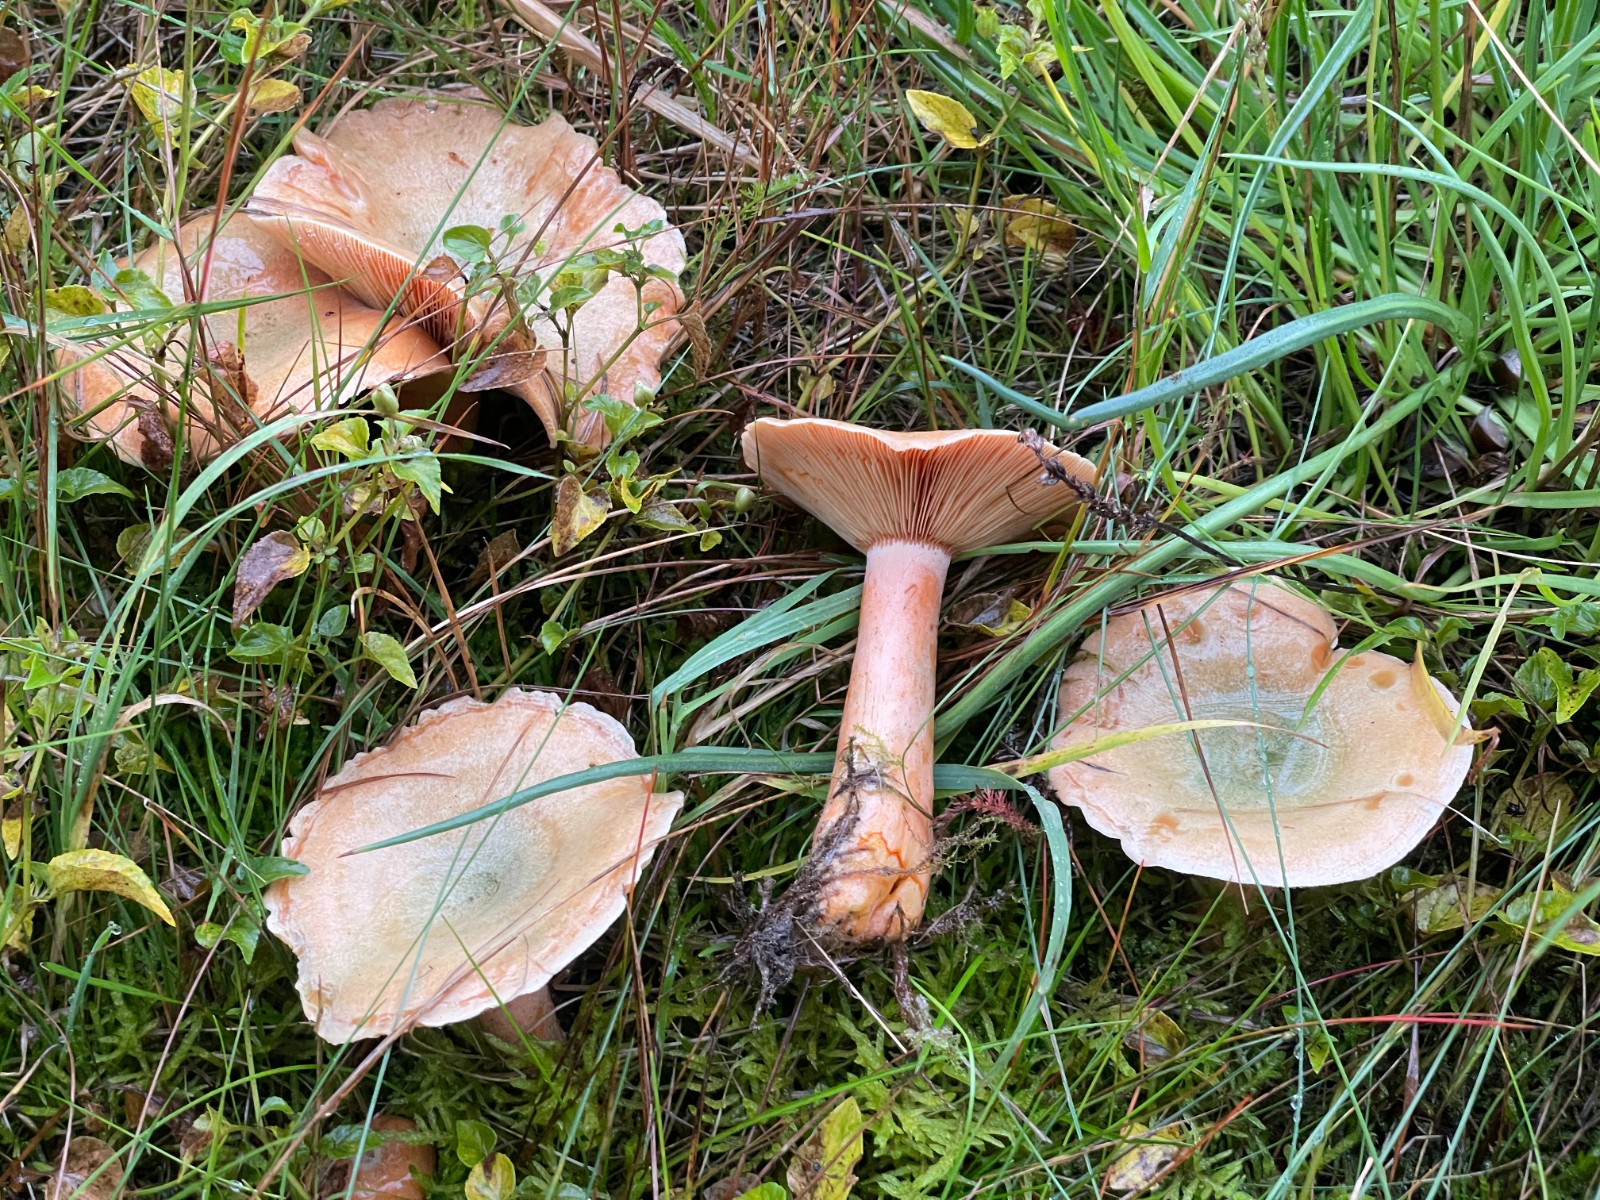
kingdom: Fungi
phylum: Basidiomycota
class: Agaricomycetes
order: Russulales
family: Russulaceae
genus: Lactarius
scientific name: Lactarius deterrimus
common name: gran-mælkehat
